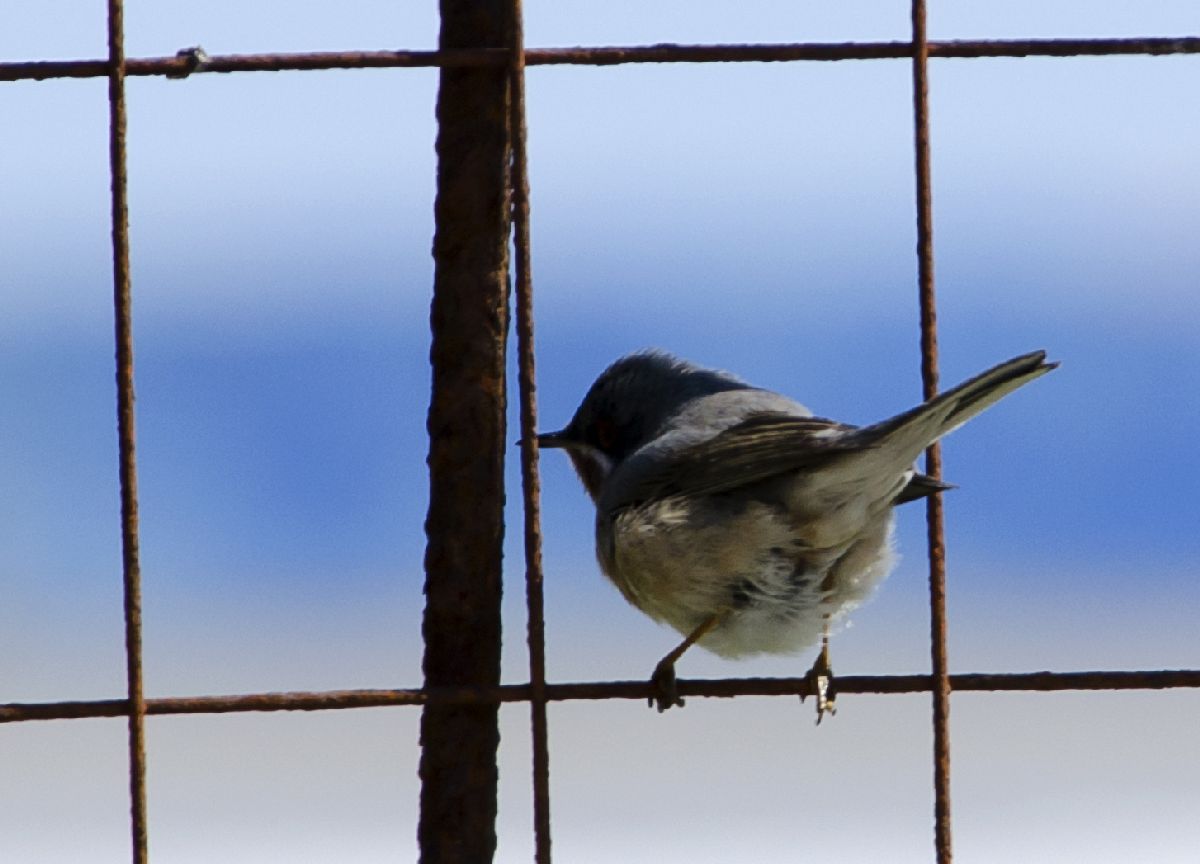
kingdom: Animalia
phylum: Chordata
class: Aves
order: Passeriformes
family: Sylviidae
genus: Sylvia
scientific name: Sylvia cantillans
